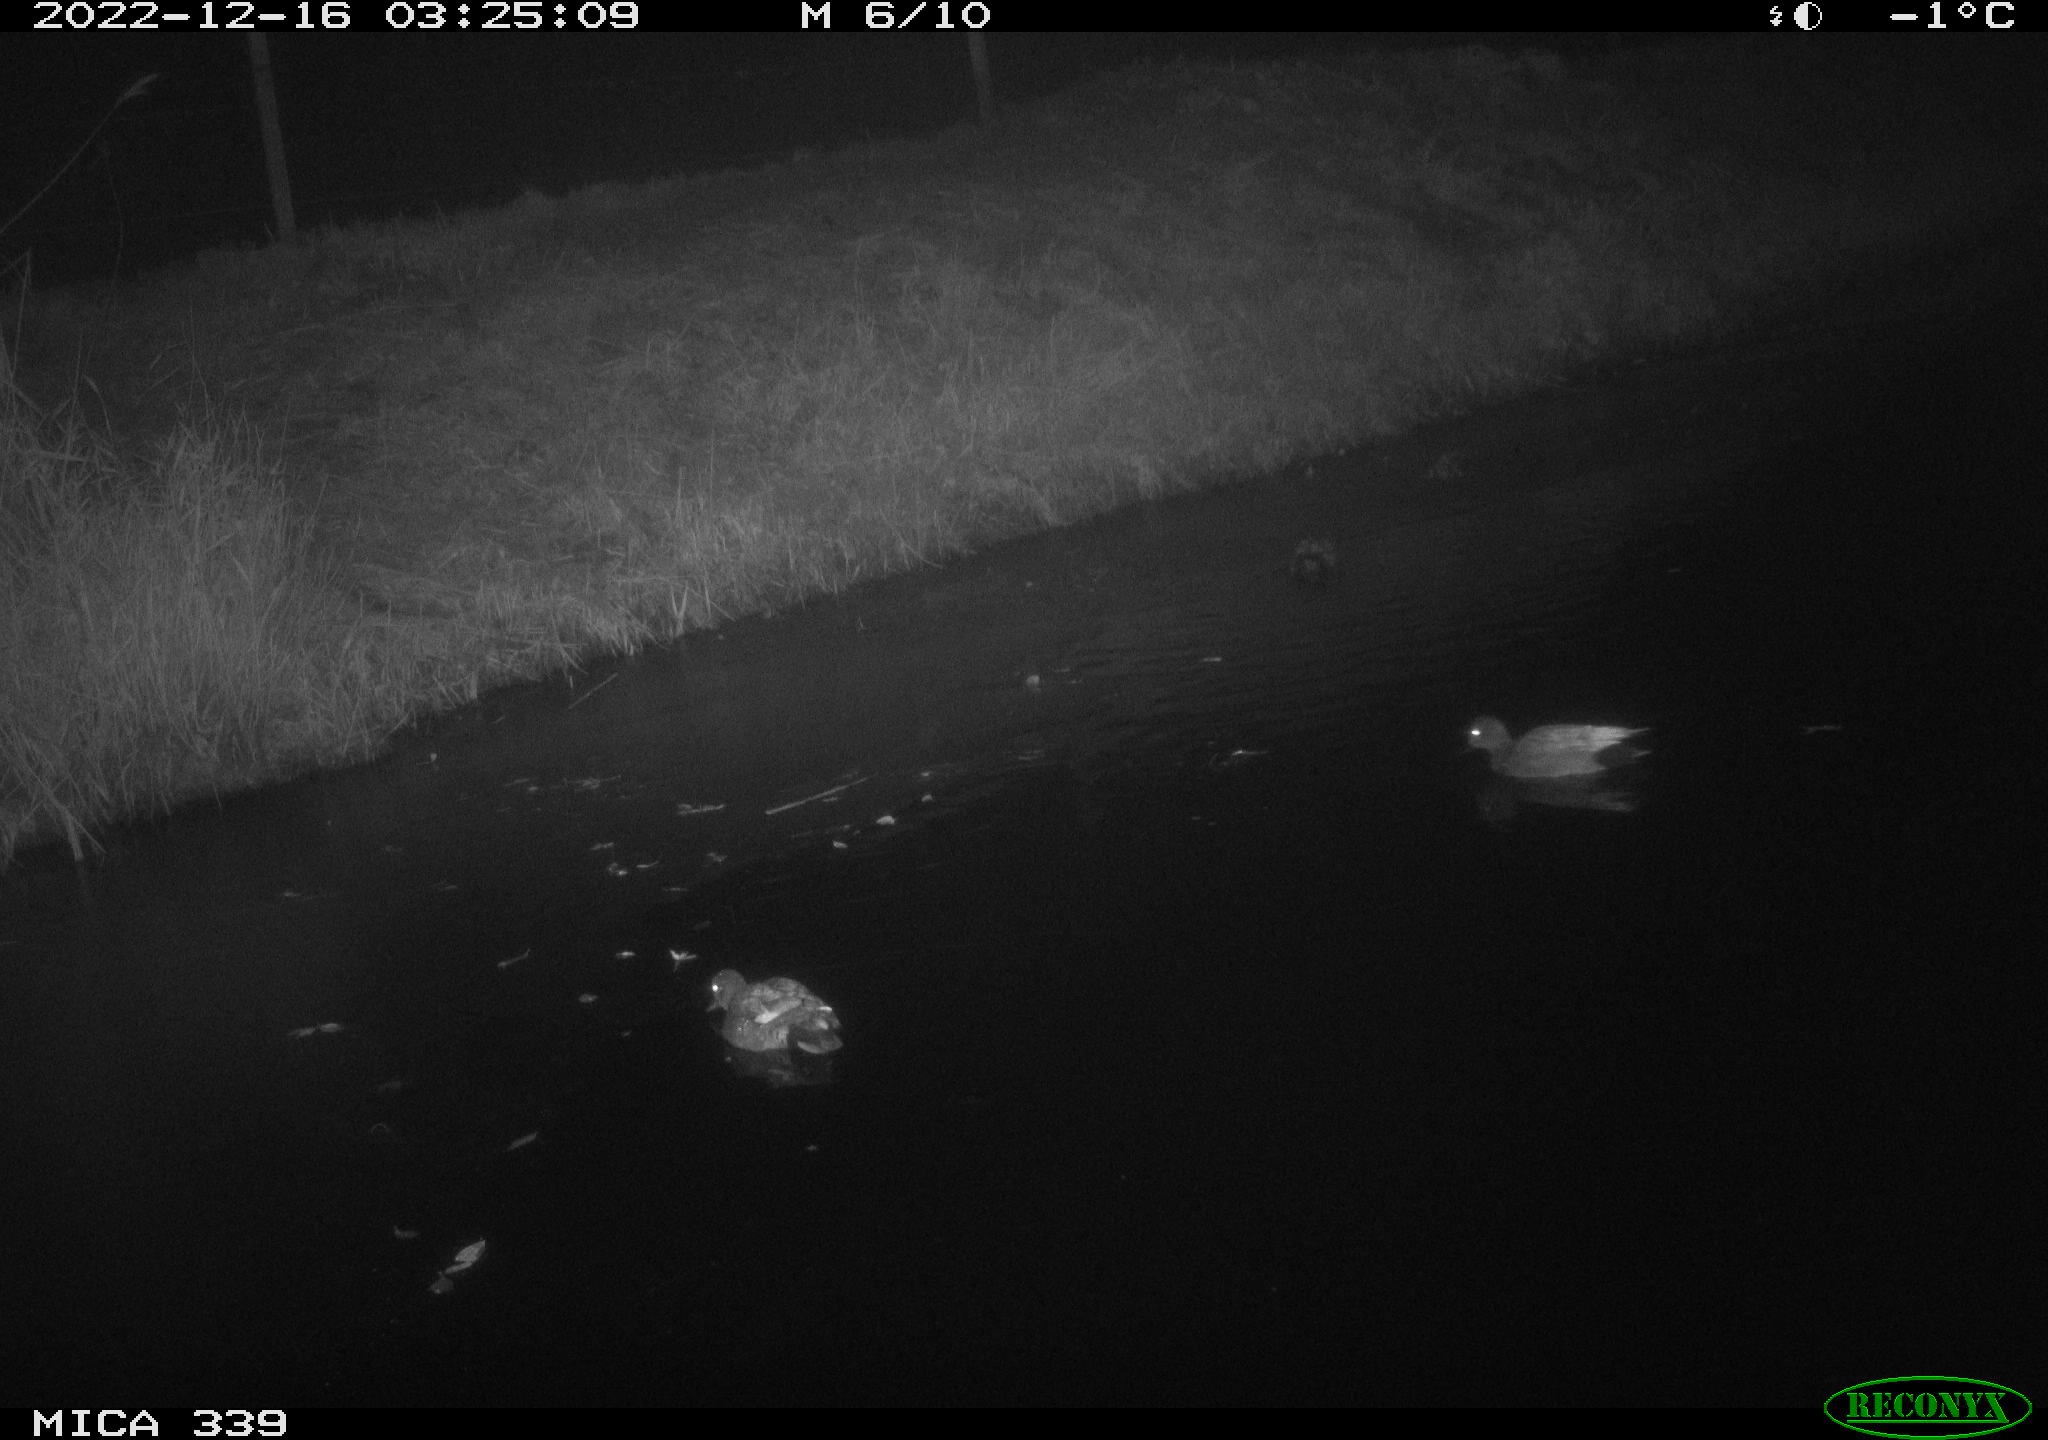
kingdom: Animalia
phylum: Chordata
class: Aves
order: Anseriformes
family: Anatidae
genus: Anas
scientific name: Anas
